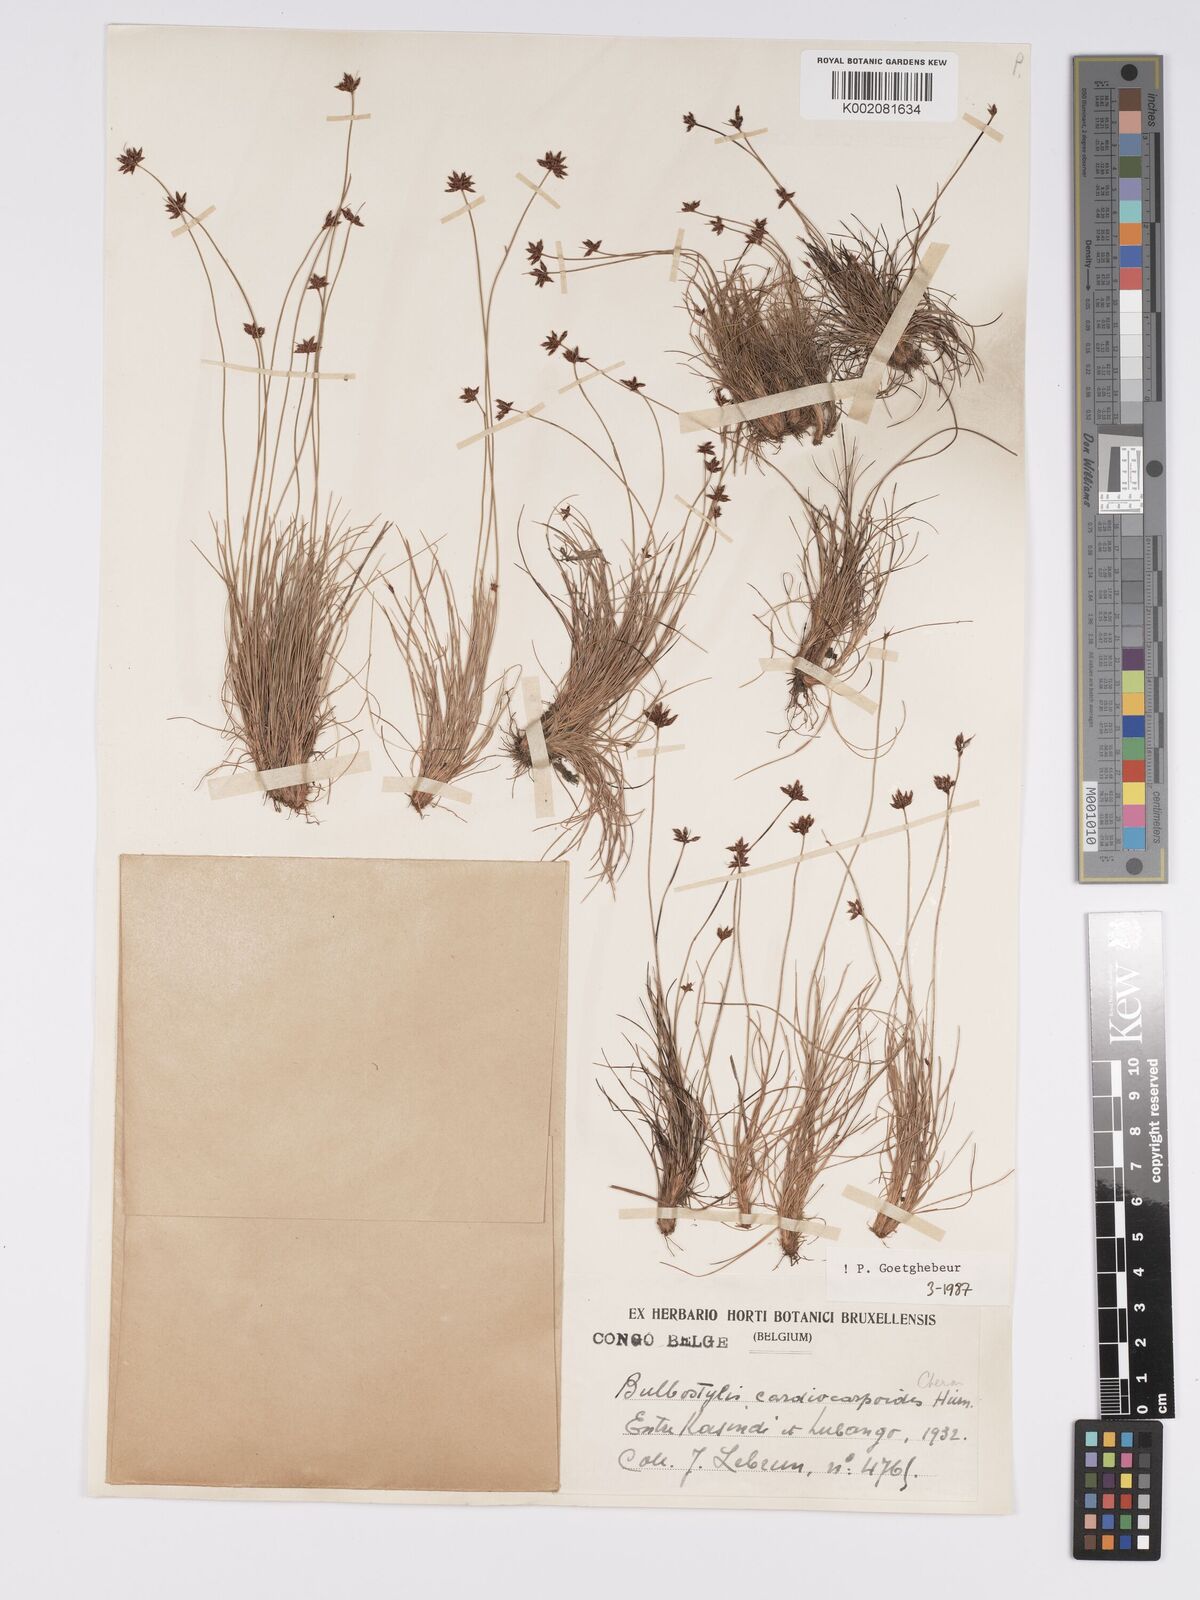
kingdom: Plantae
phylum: Tracheophyta
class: Liliopsida
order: Poales
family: Cyperaceae
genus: Bulbostylis
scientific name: Bulbostylis cardiocarpoides
